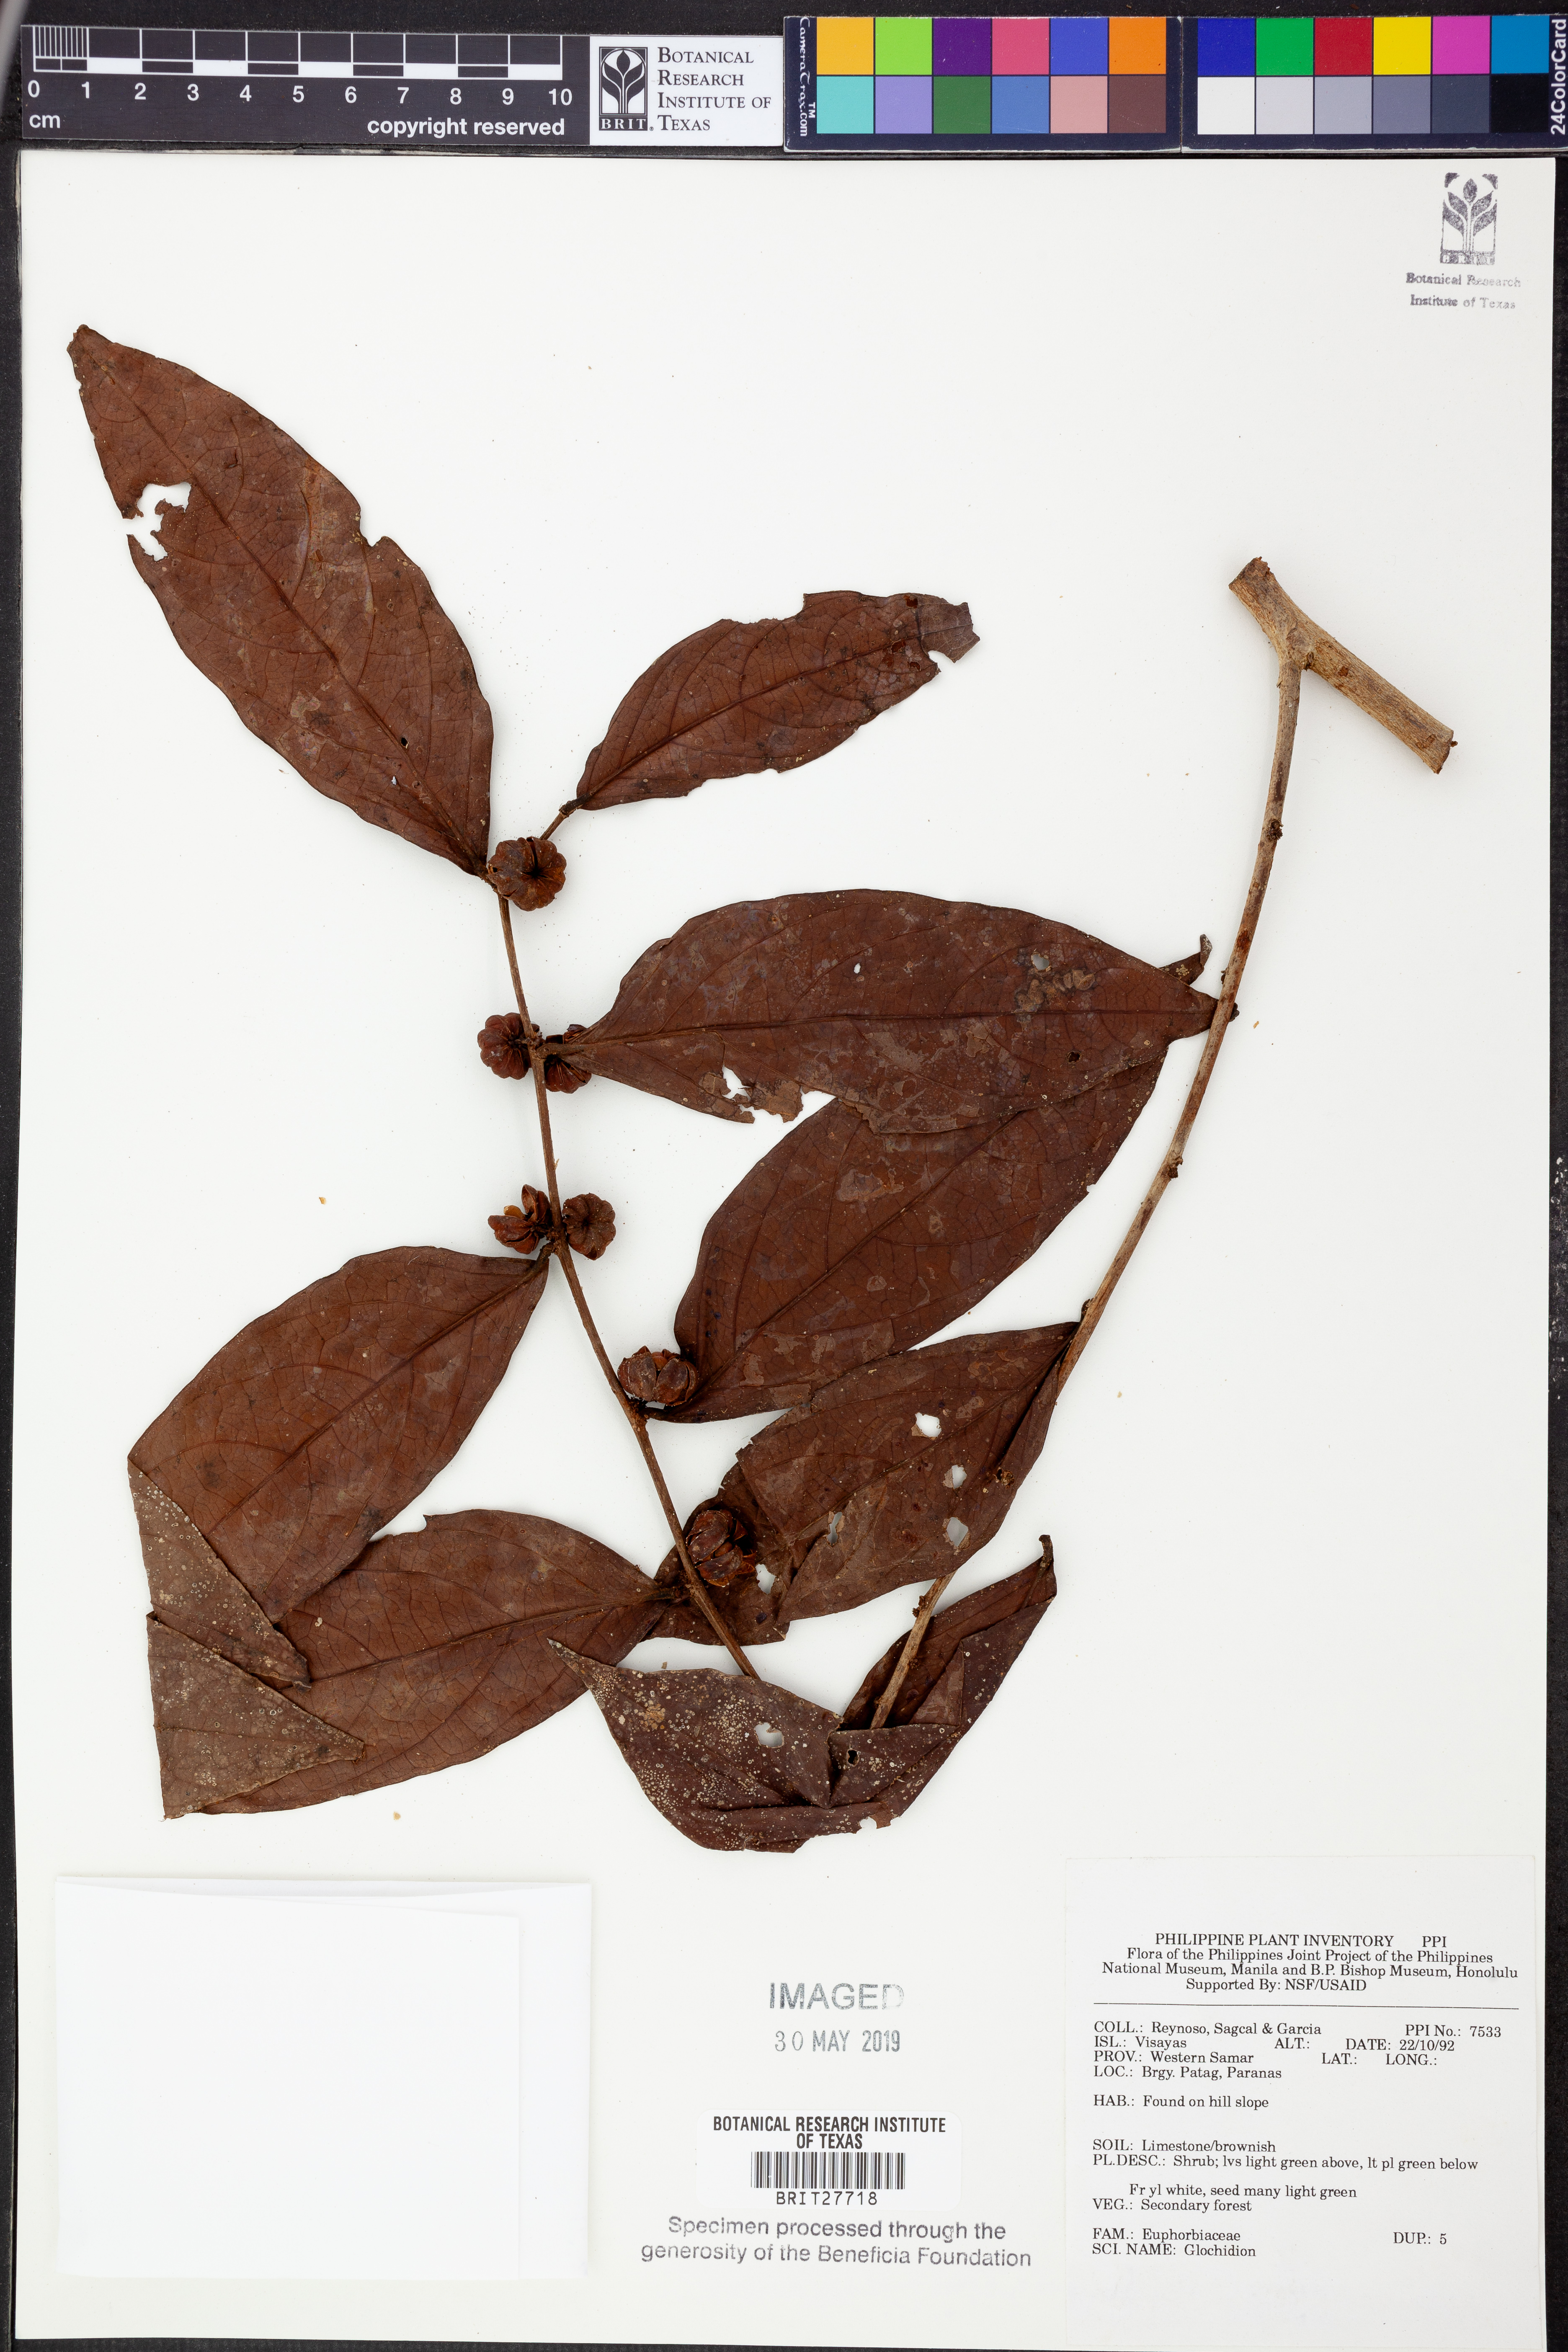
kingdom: Plantae
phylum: Tracheophyta
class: Magnoliopsida
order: Malpighiales
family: Phyllanthaceae
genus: Glochidion
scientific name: Glochidion
